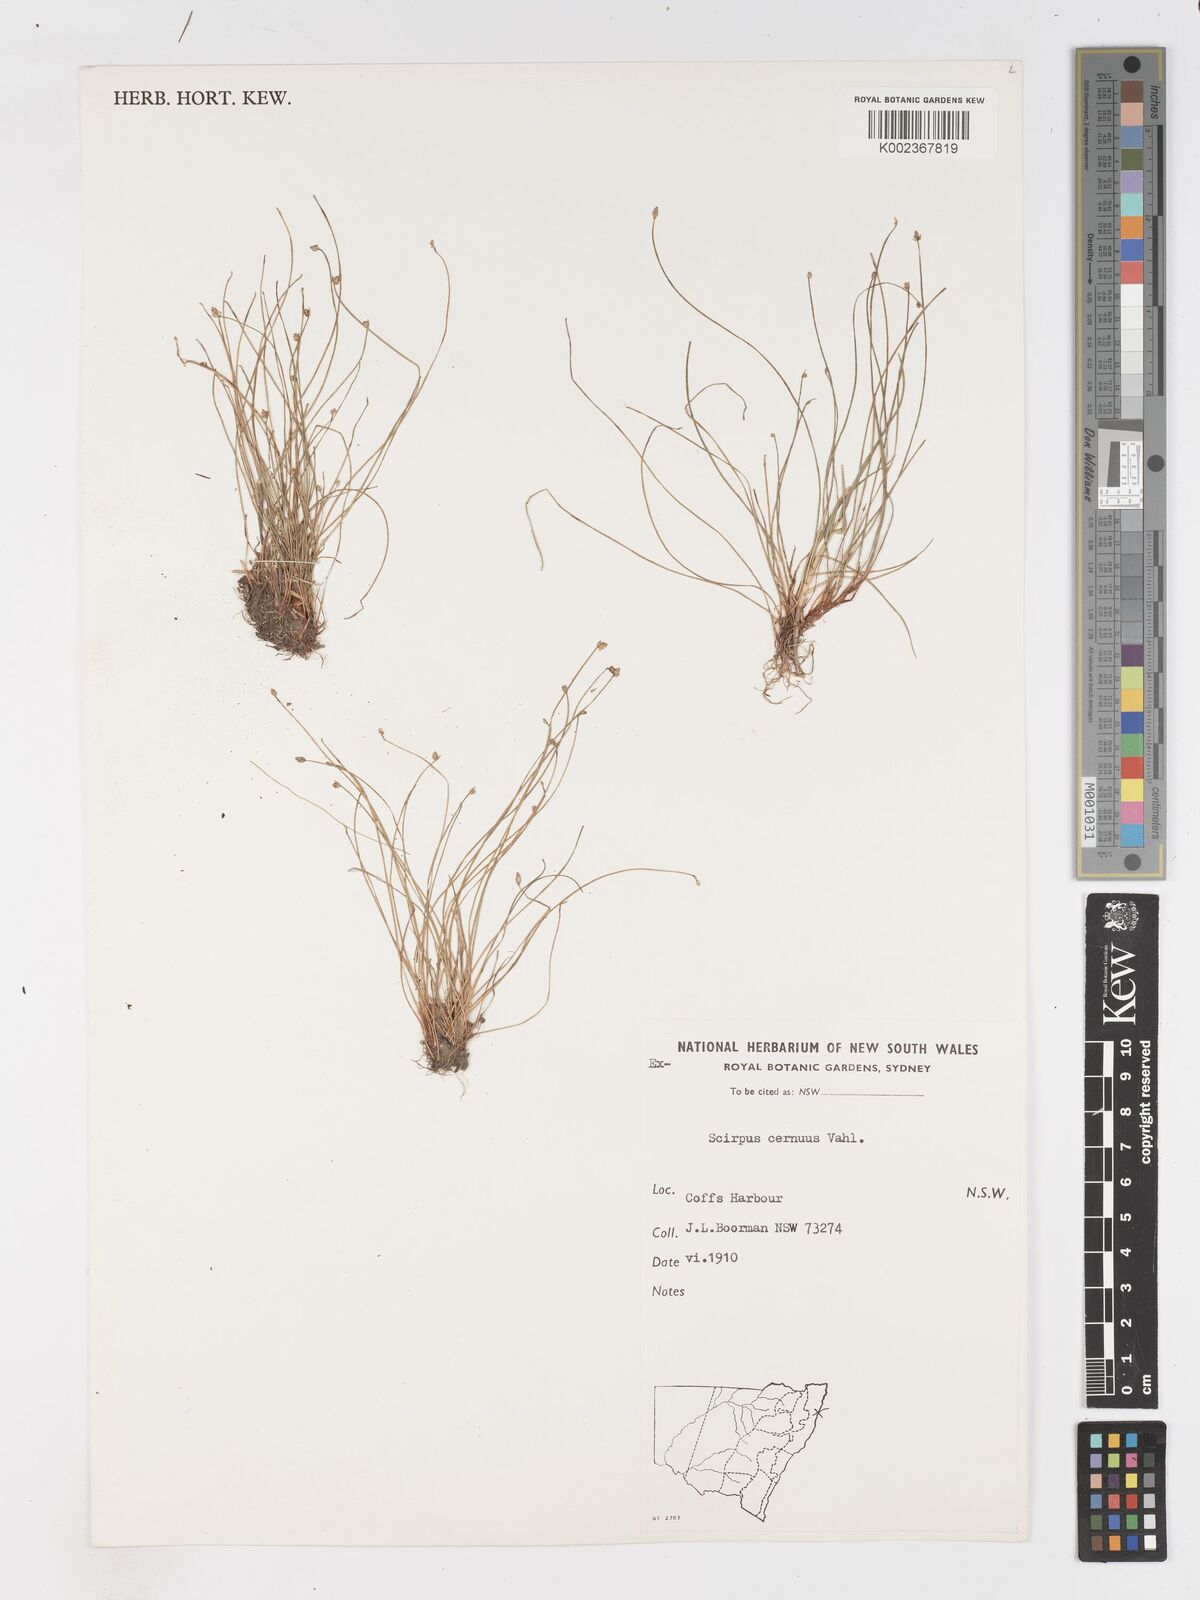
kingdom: Plantae
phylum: Tracheophyta
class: Liliopsida
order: Poales
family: Cyperaceae
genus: Isolepis
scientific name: Isolepis cernua
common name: Slender club-rush
